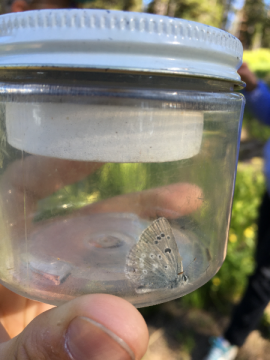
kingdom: Animalia
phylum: Arthropoda
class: Insecta
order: Lepidoptera
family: Lycaenidae
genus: Icaricia
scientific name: Icaricia icarioides
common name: Boisduval's Blue
